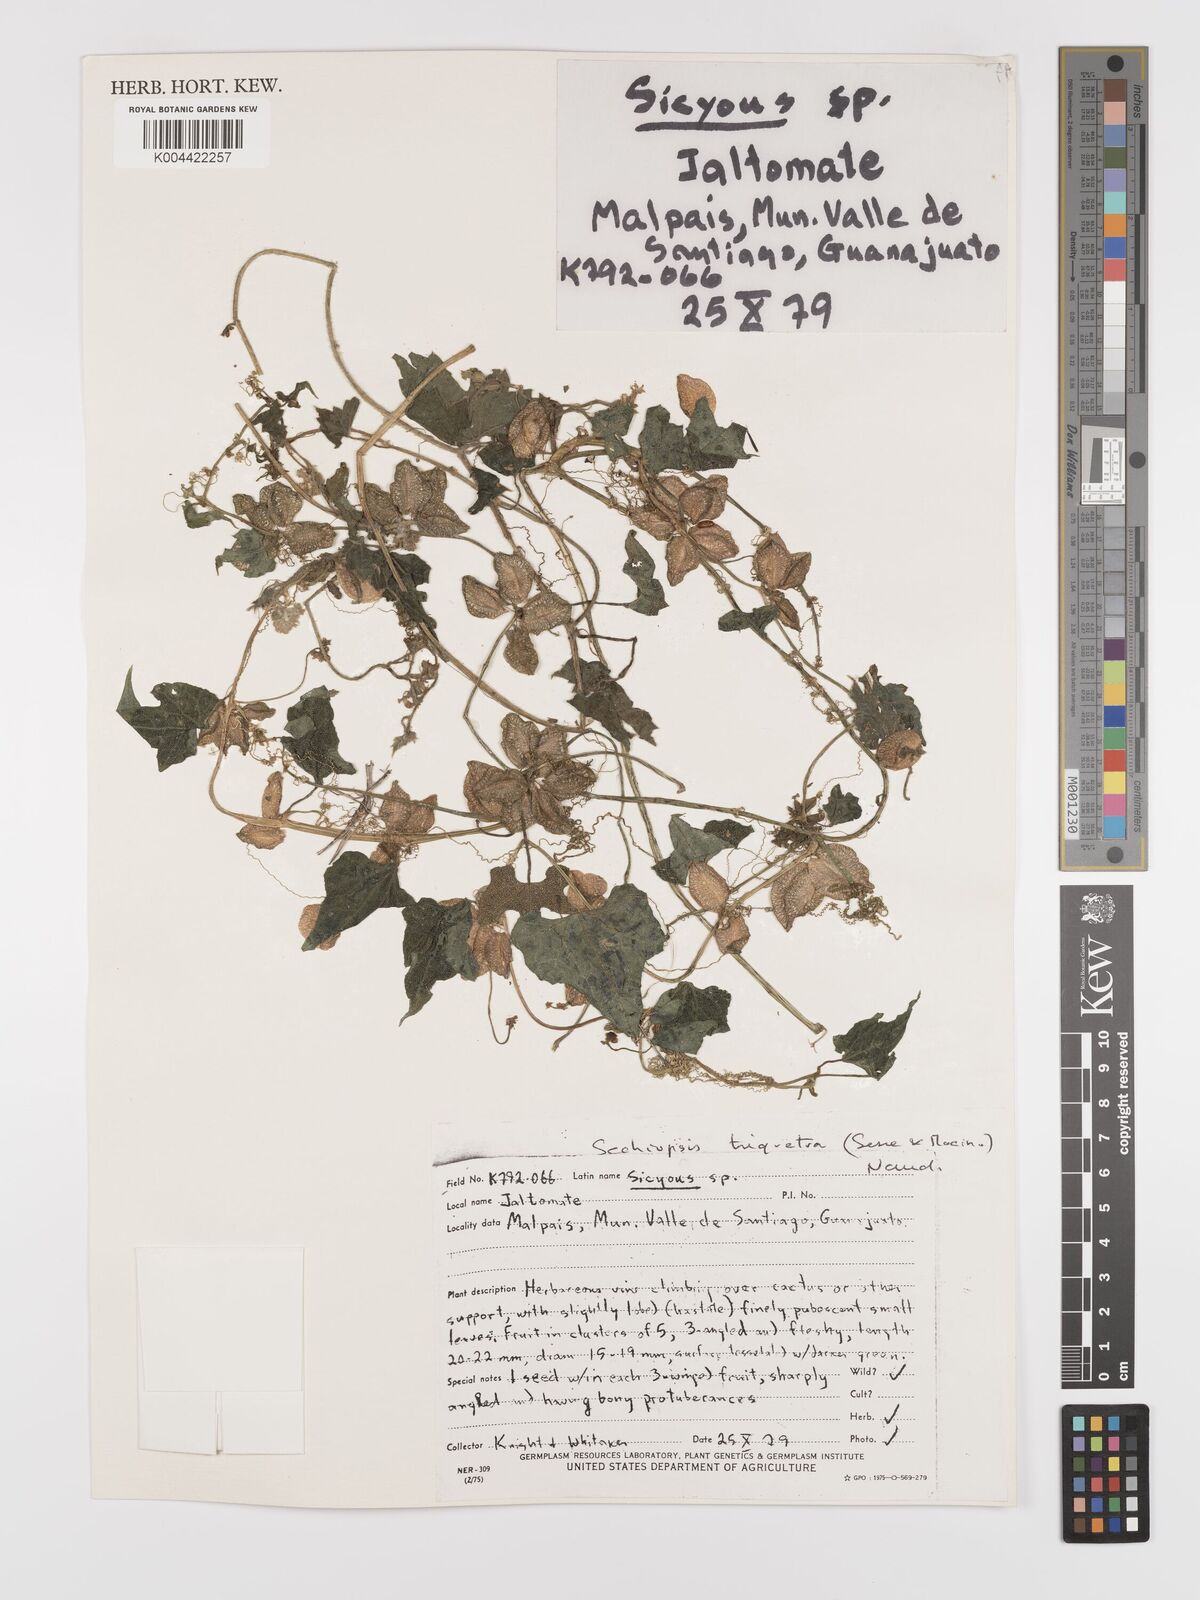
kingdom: Plantae
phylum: Tracheophyta
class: Magnoliopsida
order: Cucurbitales
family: Cucurbitaceae
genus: Sechiopsis
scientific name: Sechiopsis triqueter
